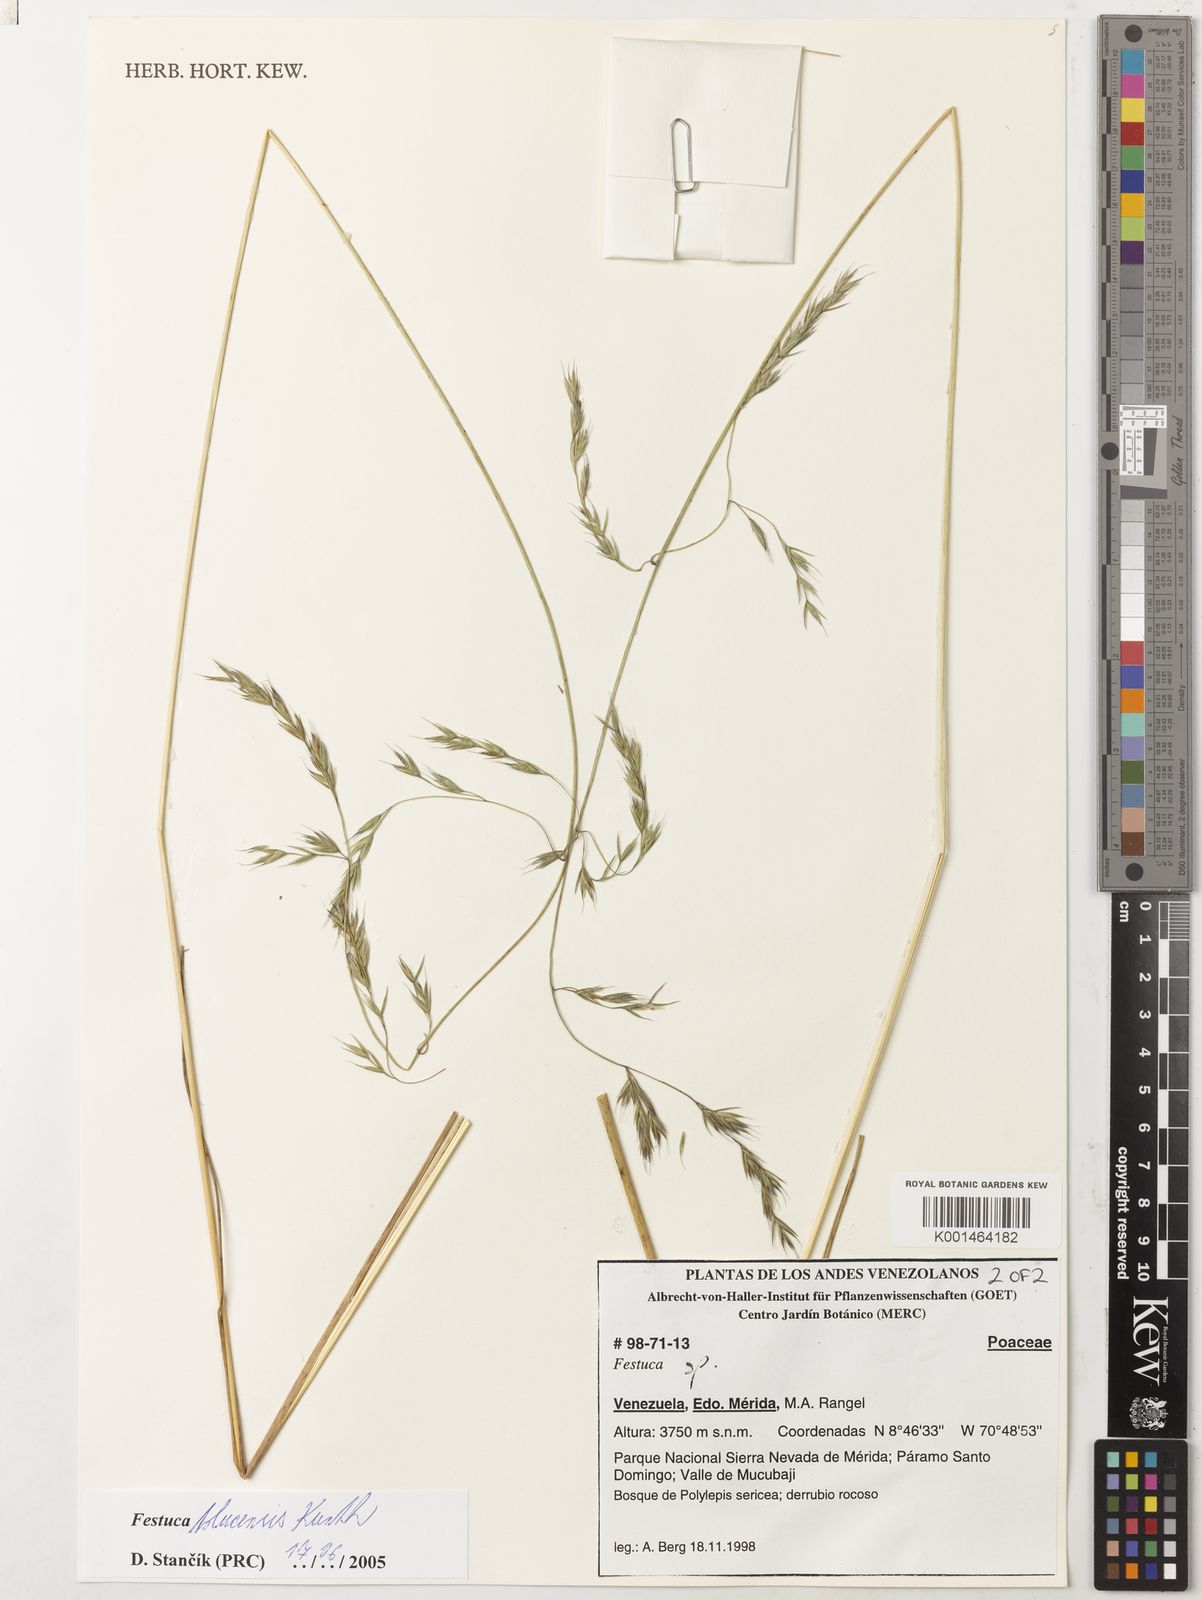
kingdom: Plantae
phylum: Tracheophyta
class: Liliopsida
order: Poales
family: Poaceae
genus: Festuca
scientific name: Festuca tolucensis
